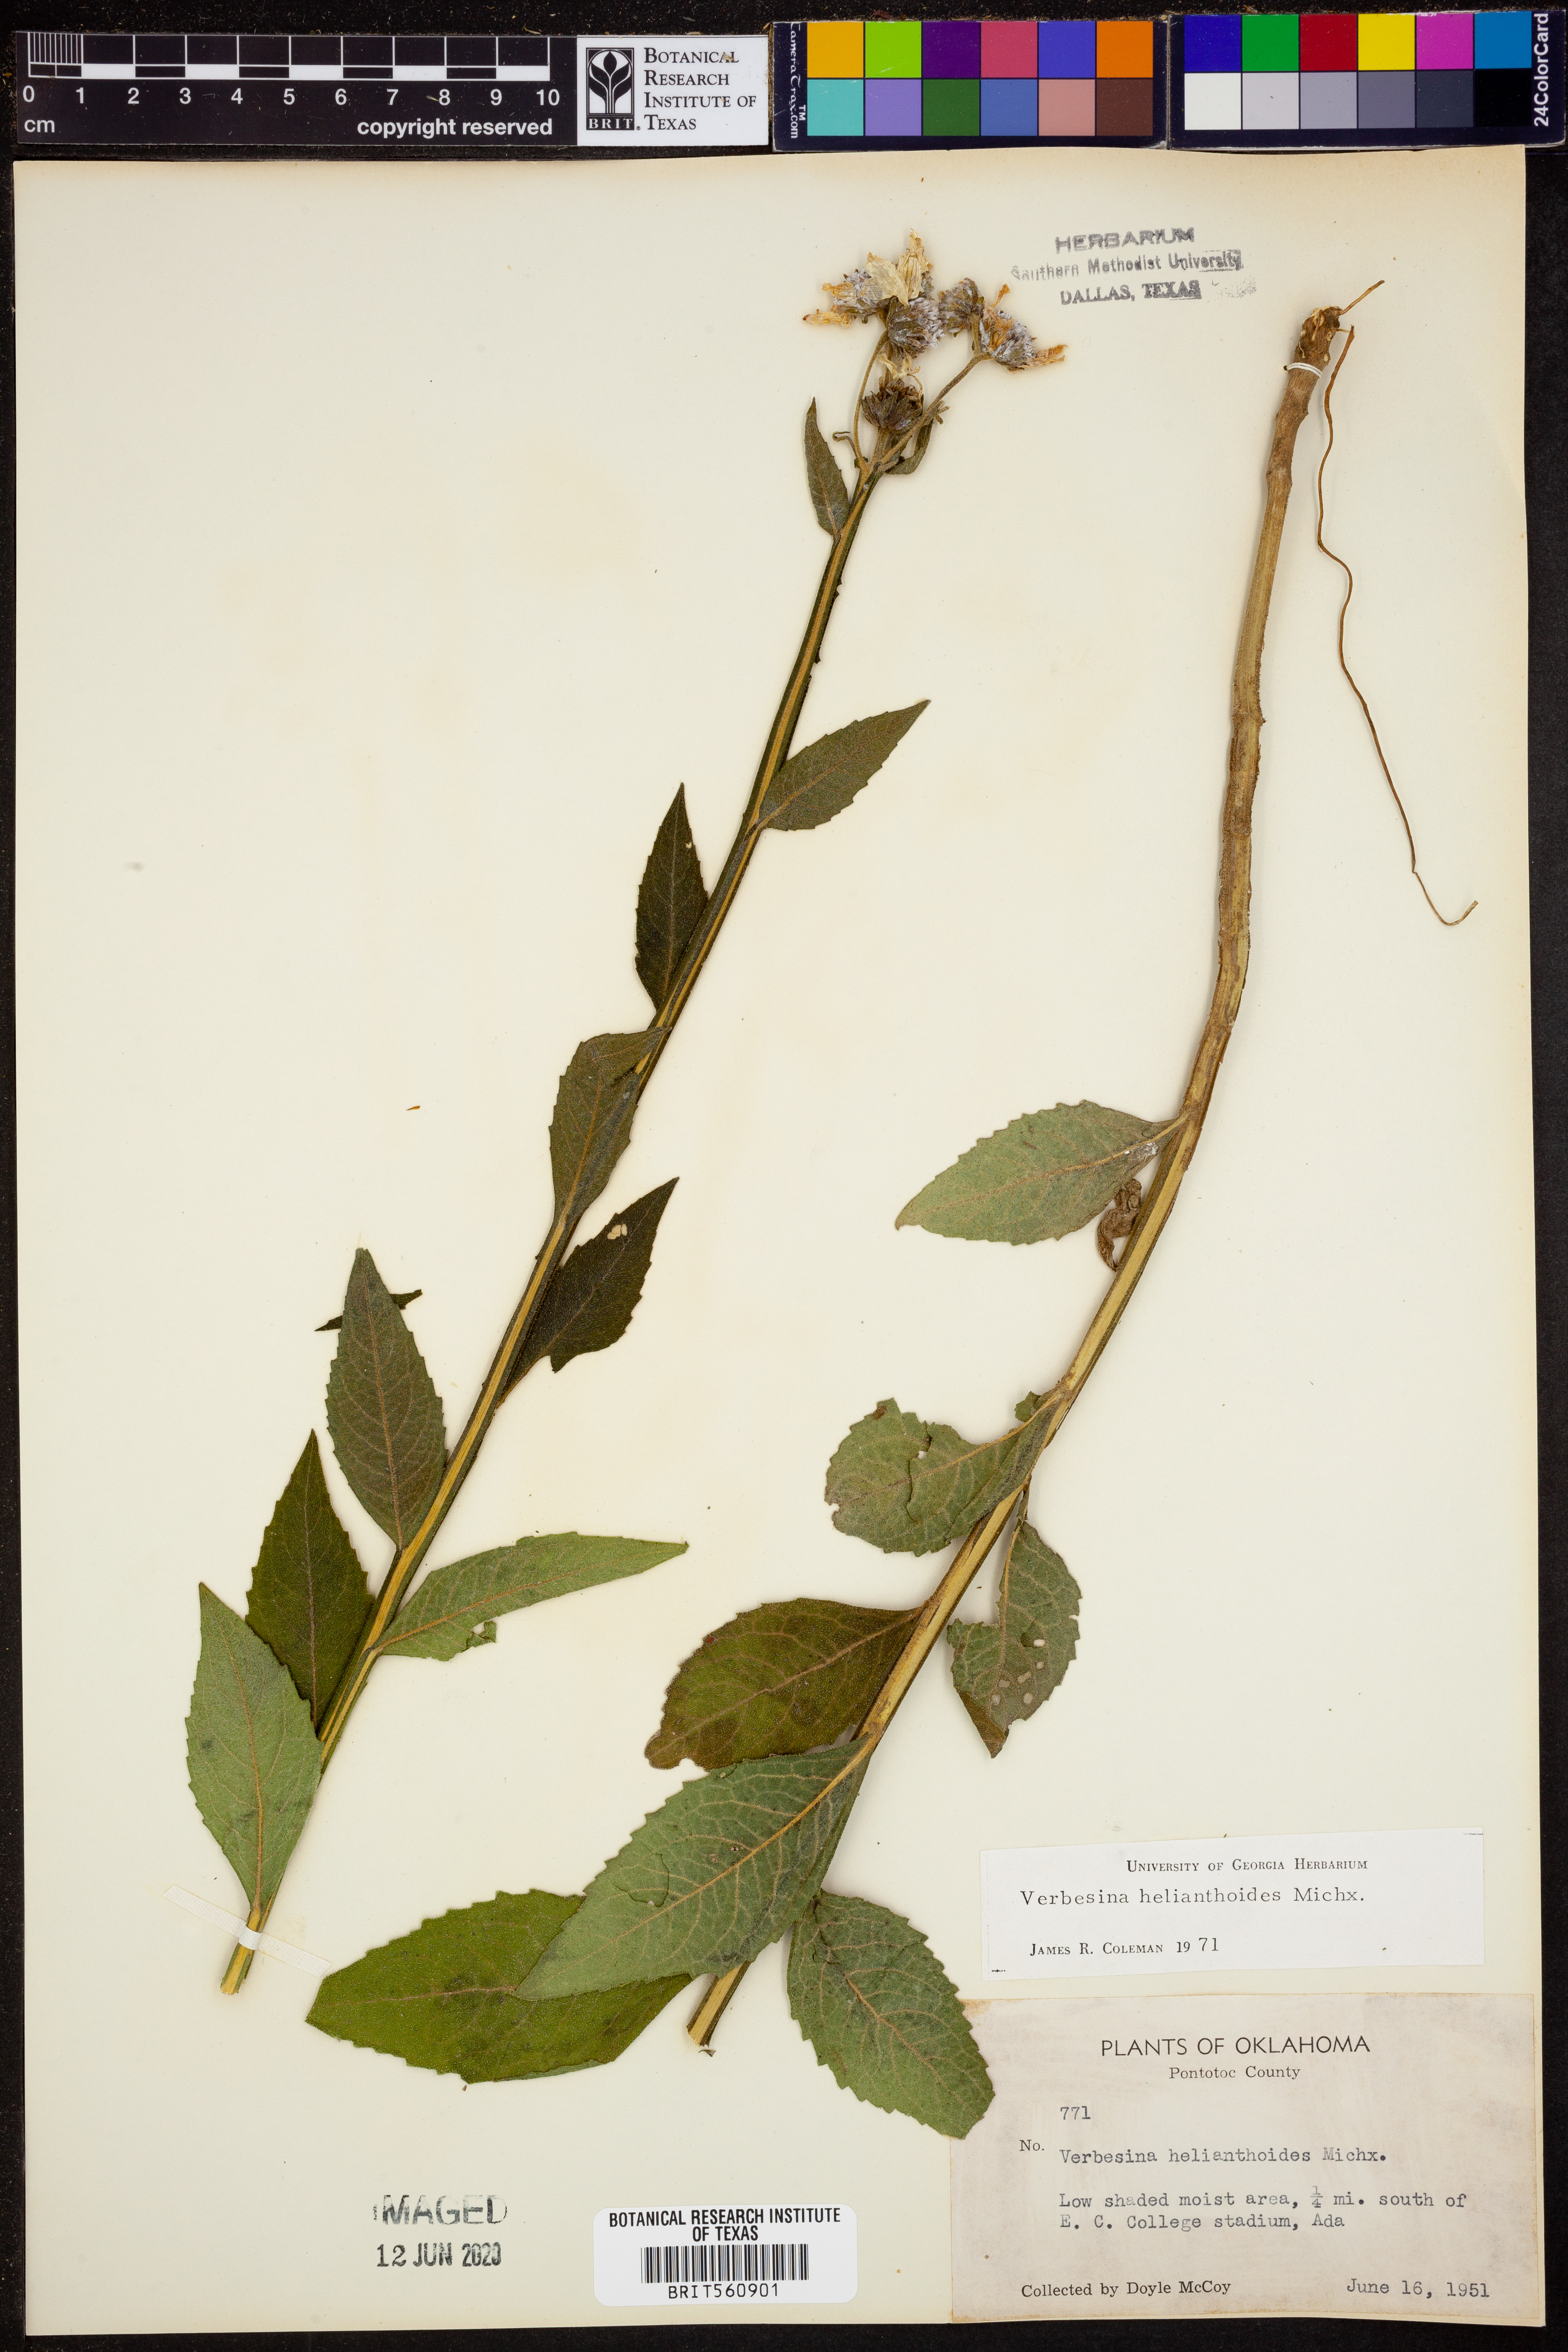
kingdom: Plantae
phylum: Tracheophyta
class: Magnoliopsida
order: Asterales
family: Asteraceae
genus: Verbesina
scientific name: Verbesina helianthoides
